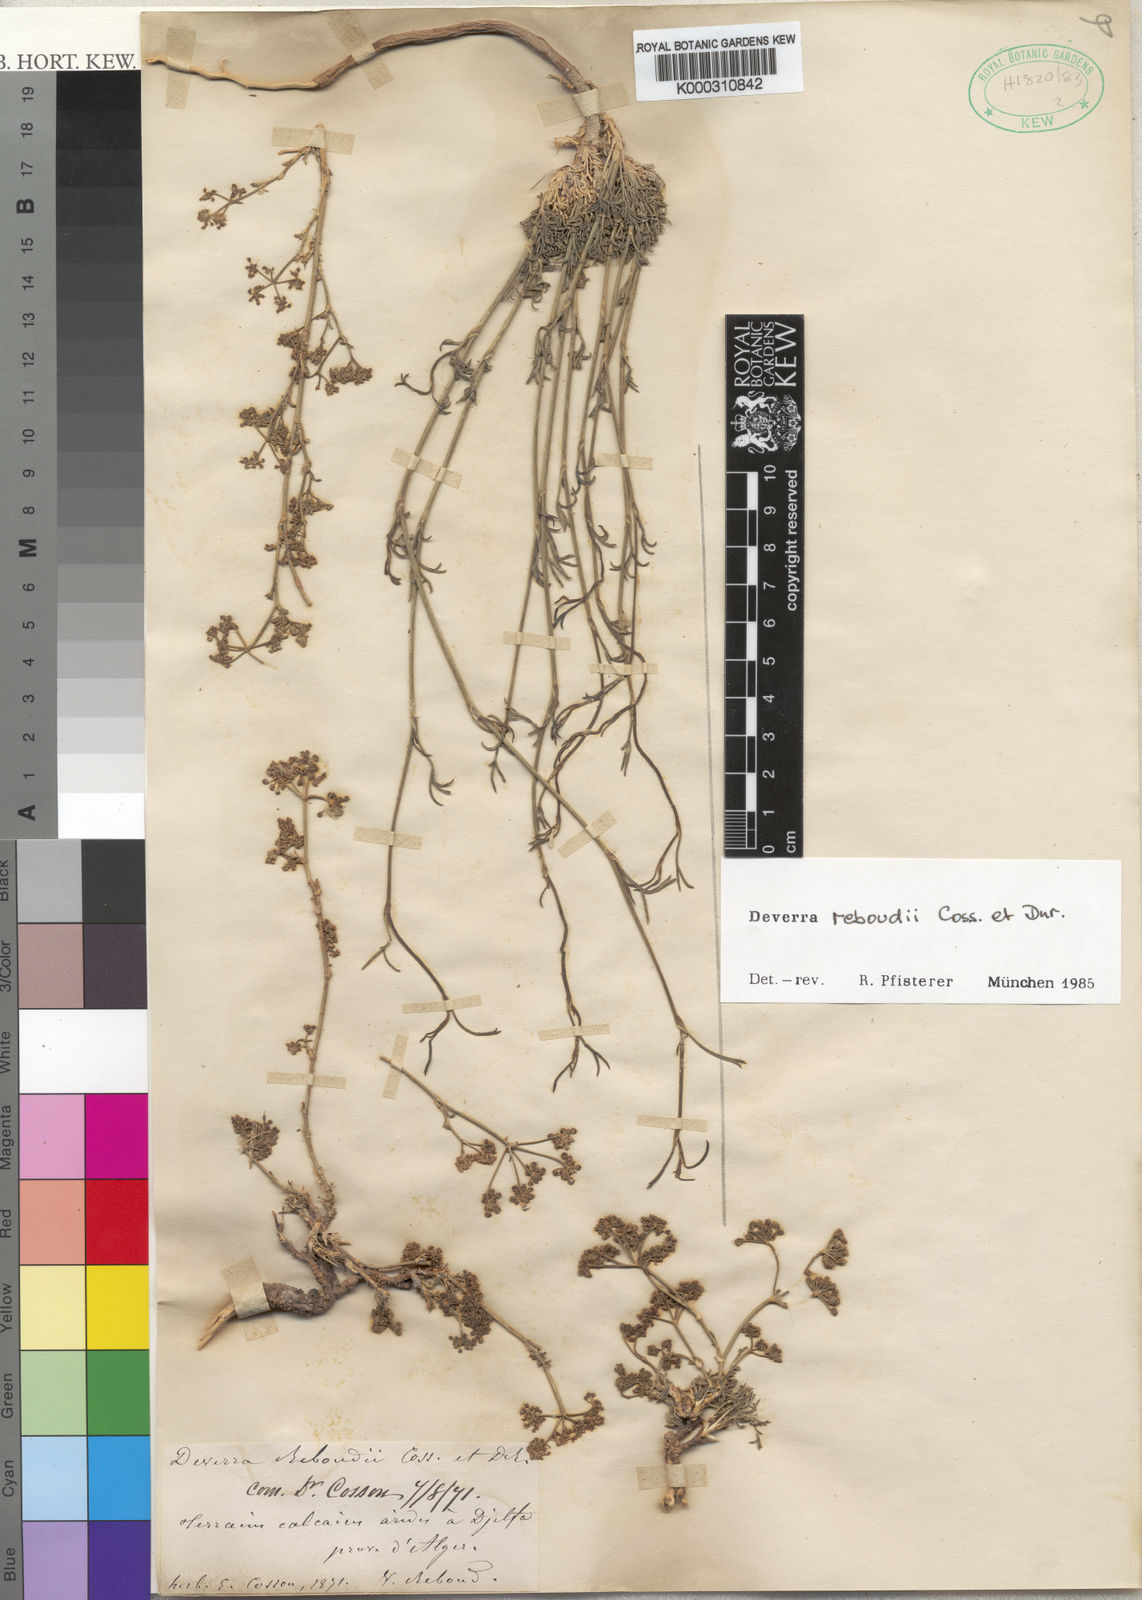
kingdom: Plantae
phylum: Tracheophyta
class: Magnoliopsida
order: Apiales
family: Apiaceae
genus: Deverra
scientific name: Deverra reboudii
